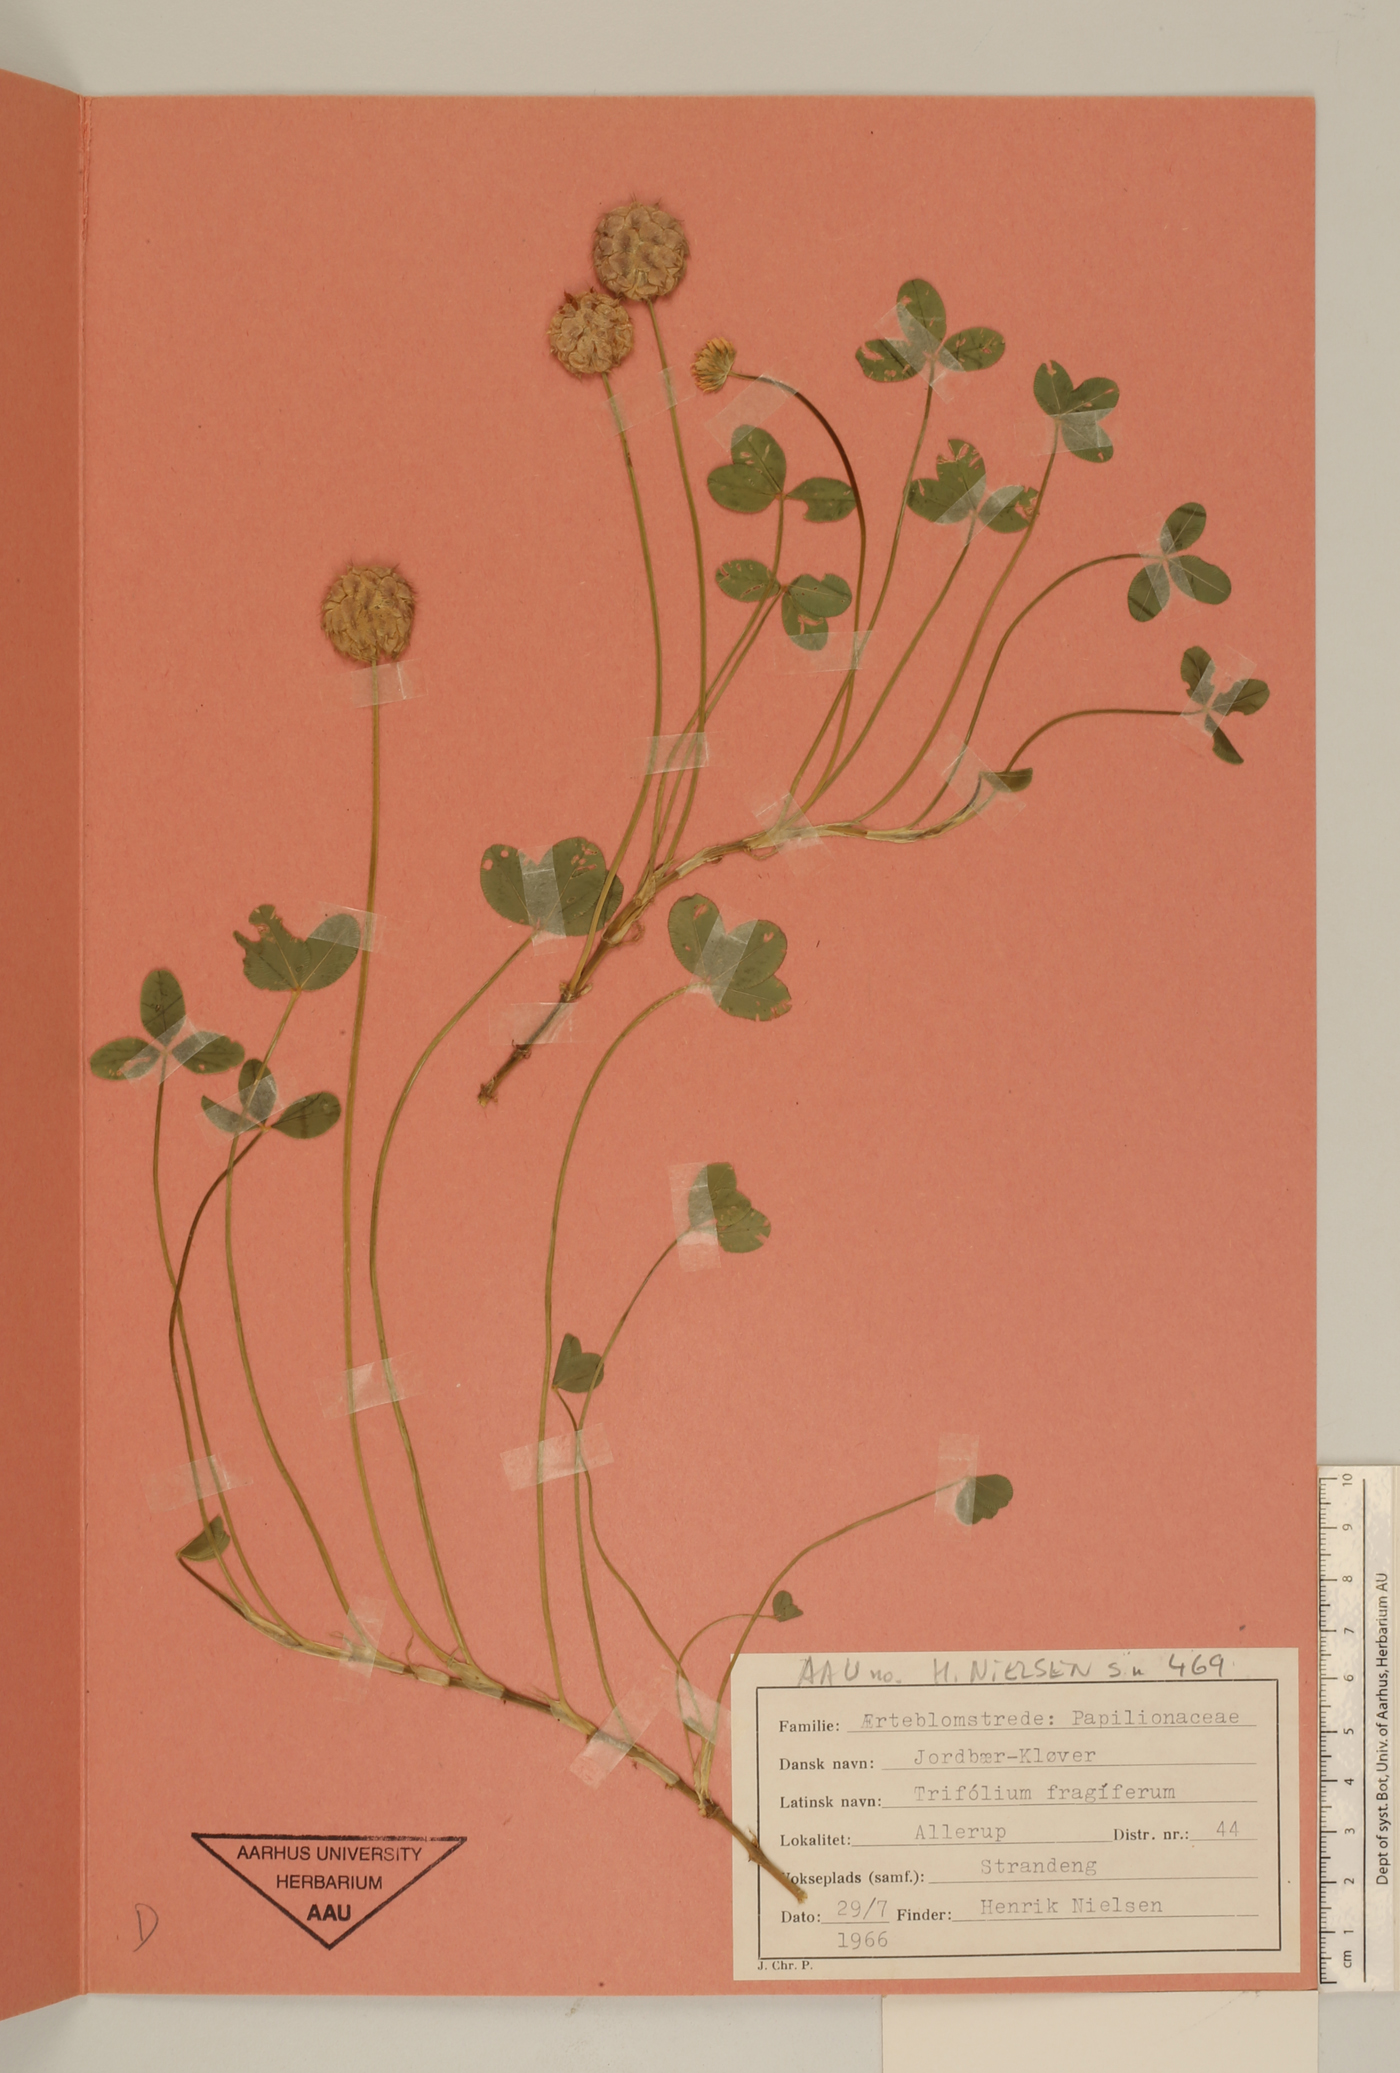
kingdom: Plantae
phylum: Tracheophyta
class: Magnoliopsida
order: Fabales
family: Fabaceae
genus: Trifolium
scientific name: Trifolium fragiferum
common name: Strawberry clover
